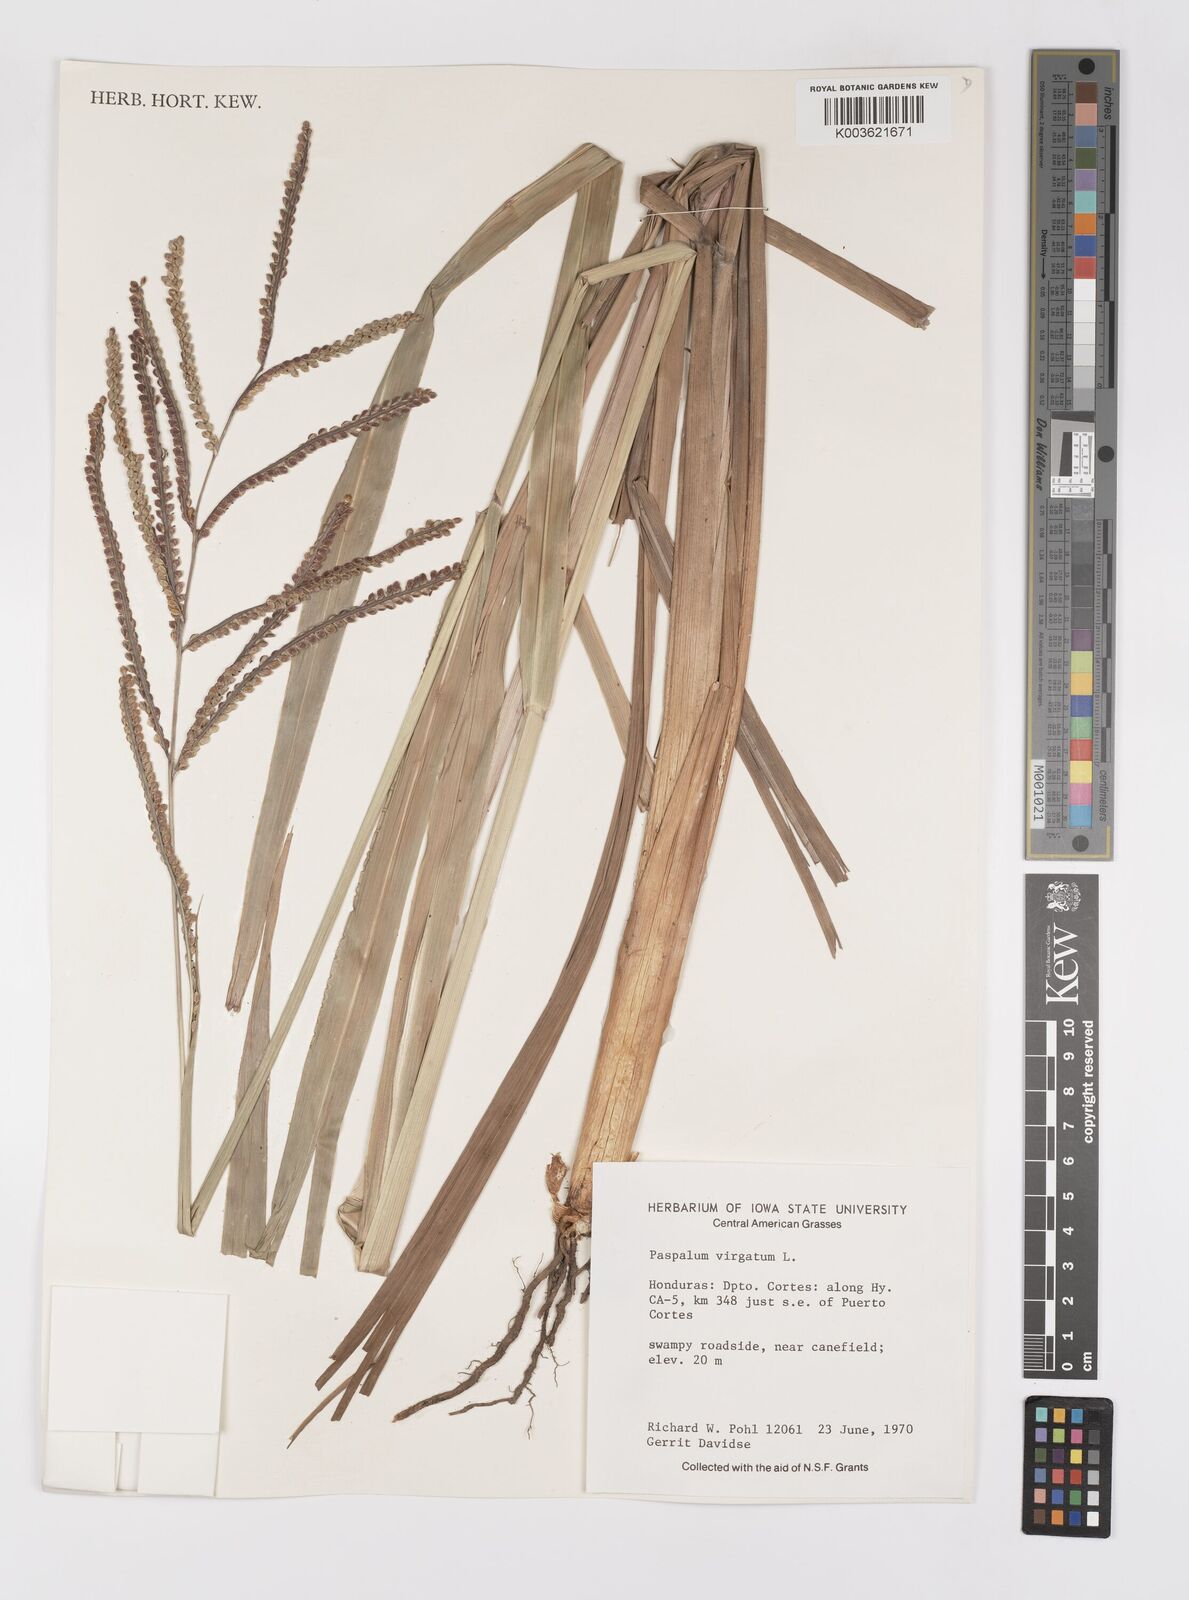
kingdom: Plantae
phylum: Tracheophyta
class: Liliopsida
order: Poales
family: Poaceae
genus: Paspalum
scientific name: Paspalum virgatum
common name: Talquezal
